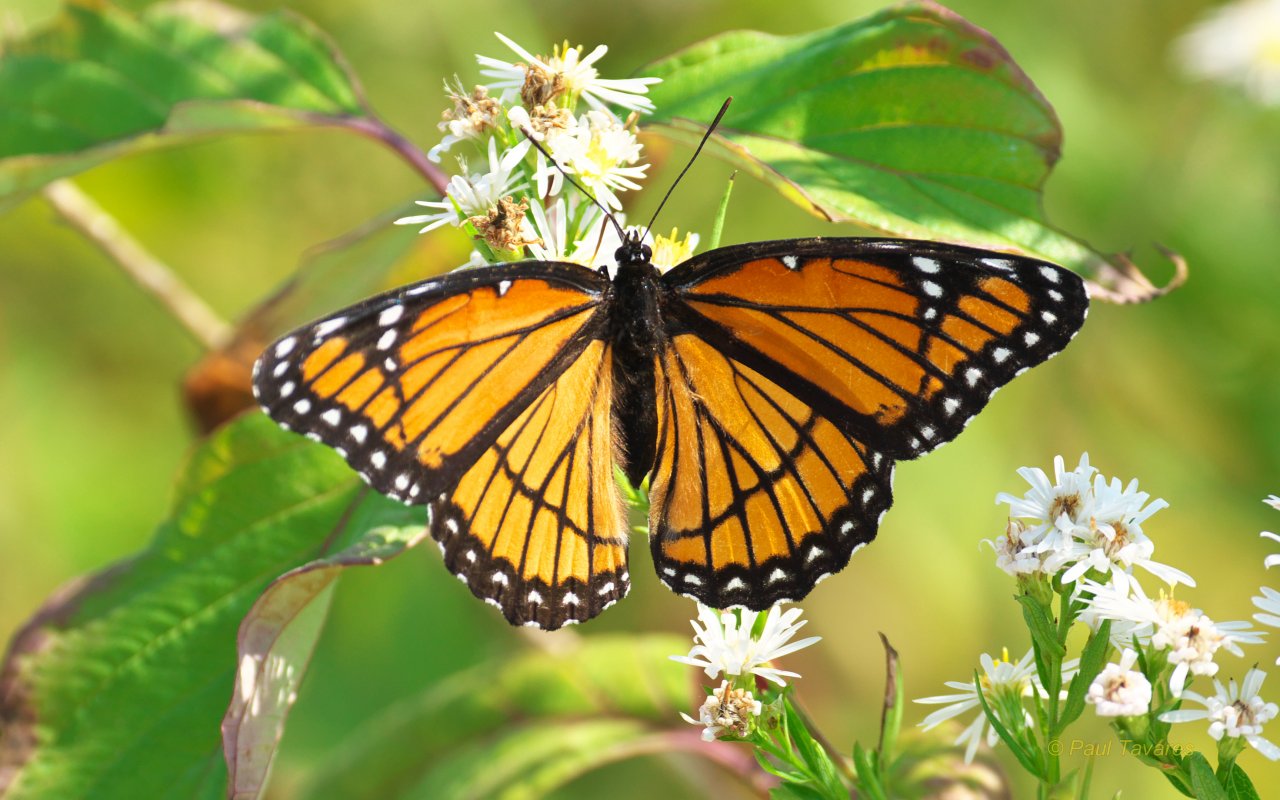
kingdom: Animalia
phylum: Arthropoda
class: Insecta
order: Lepidoptera
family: Nymphalidae
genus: Limenitis
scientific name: Limenitis archippus
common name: Viceroy
